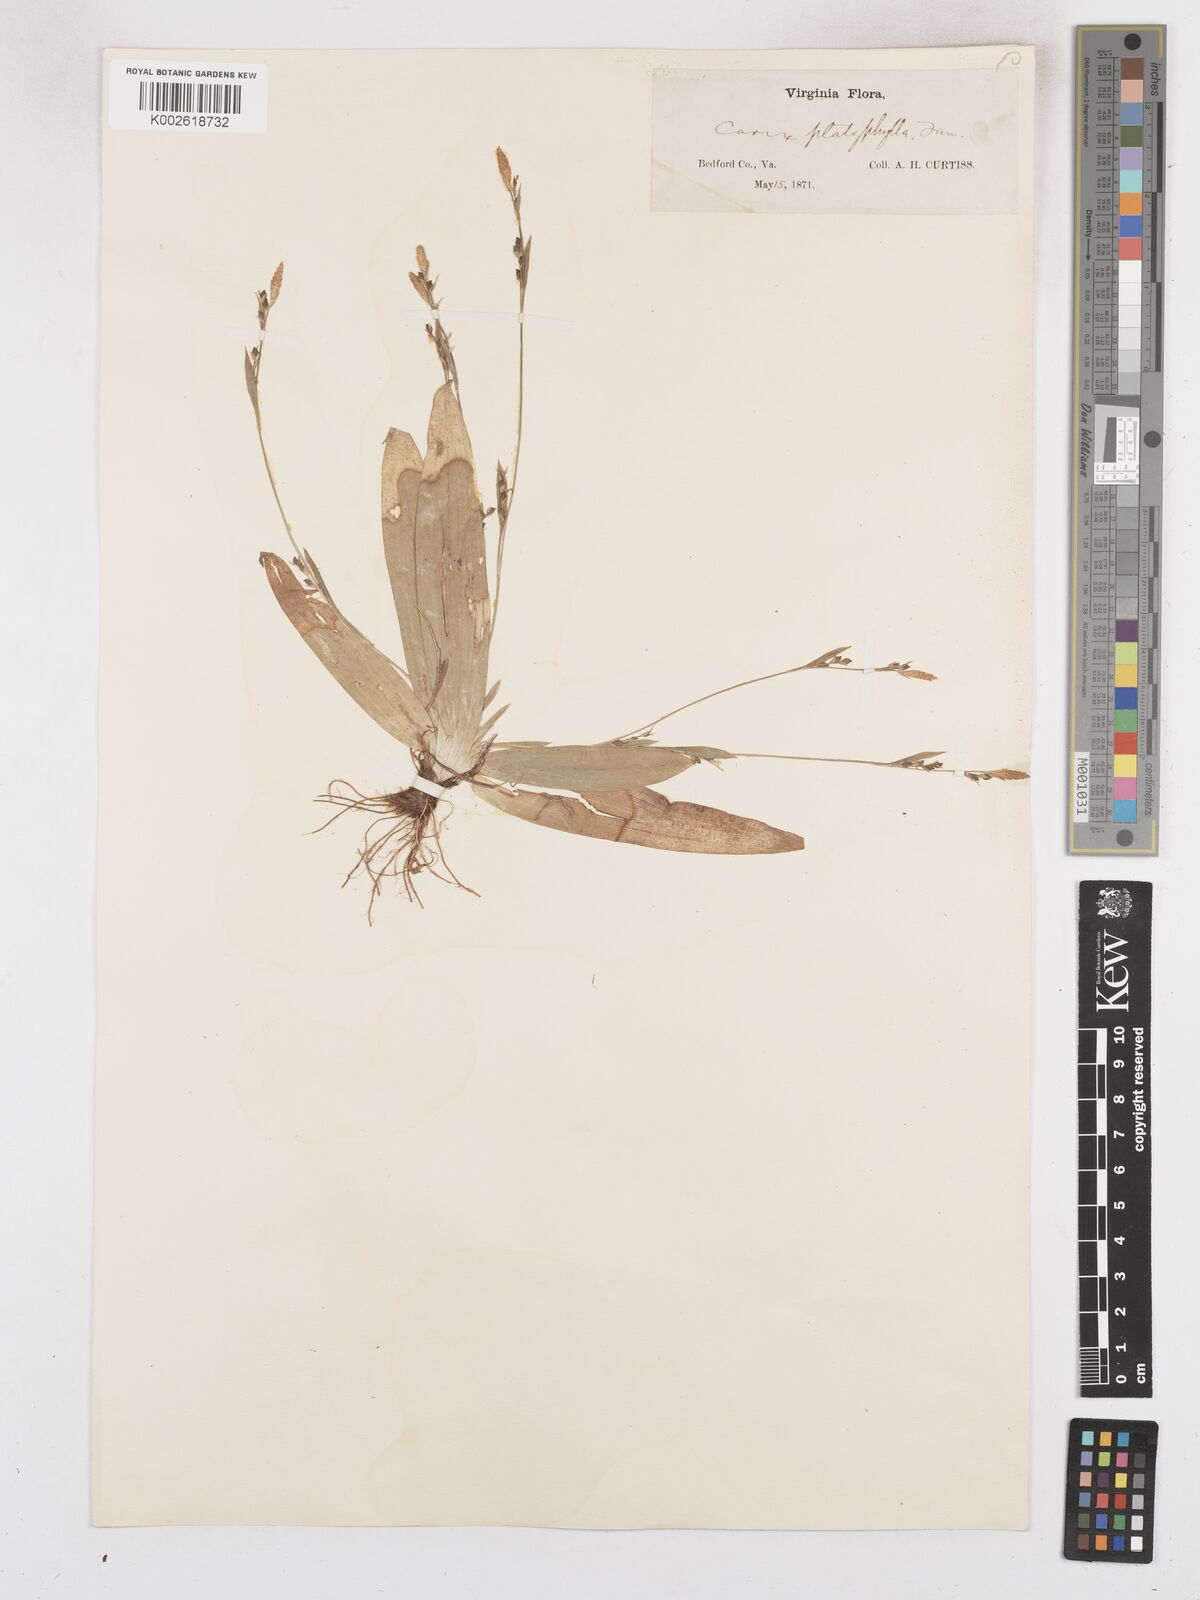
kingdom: Plantae
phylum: Tracheophyta
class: Liliopsida
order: Poales
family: Cyperaceae
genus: Carex
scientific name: Carex platyphylla
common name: Broad-leaved sedge
